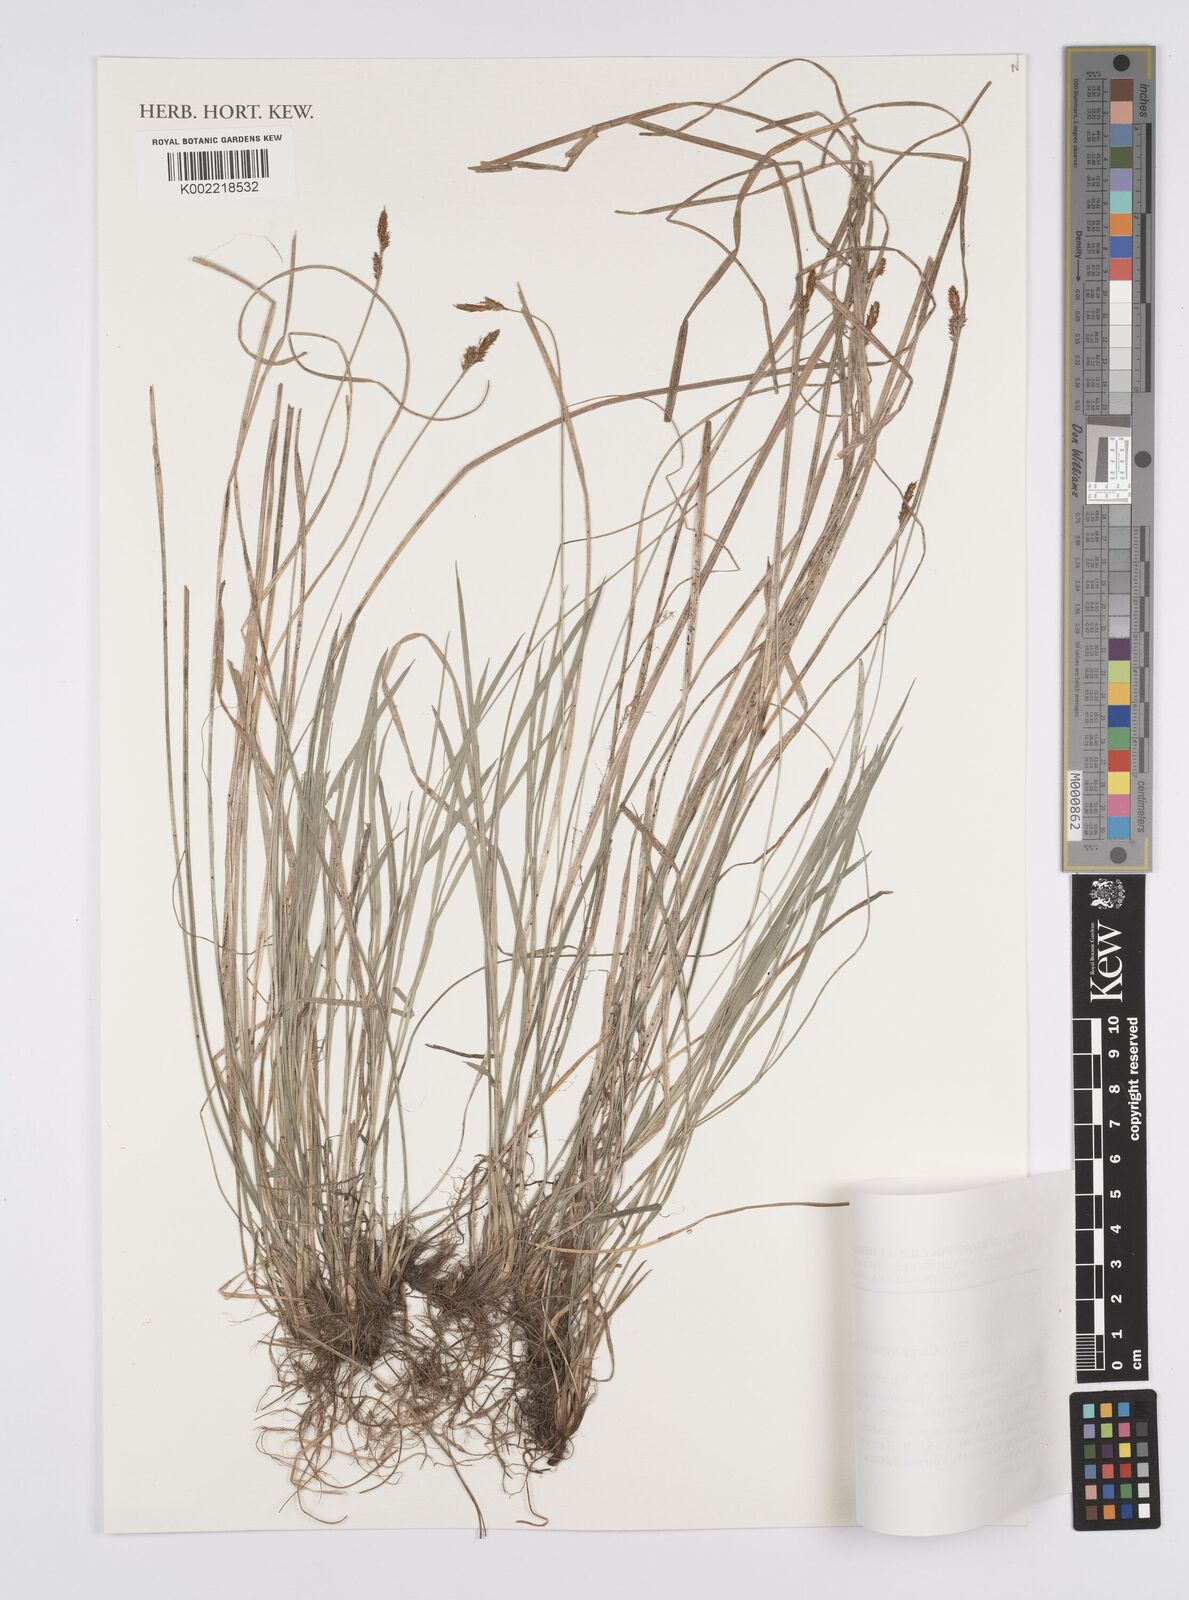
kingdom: Plantae
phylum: Tracheophyta
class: Liliopsida
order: Poales
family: Cyperaceae
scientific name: Cyperaceae
